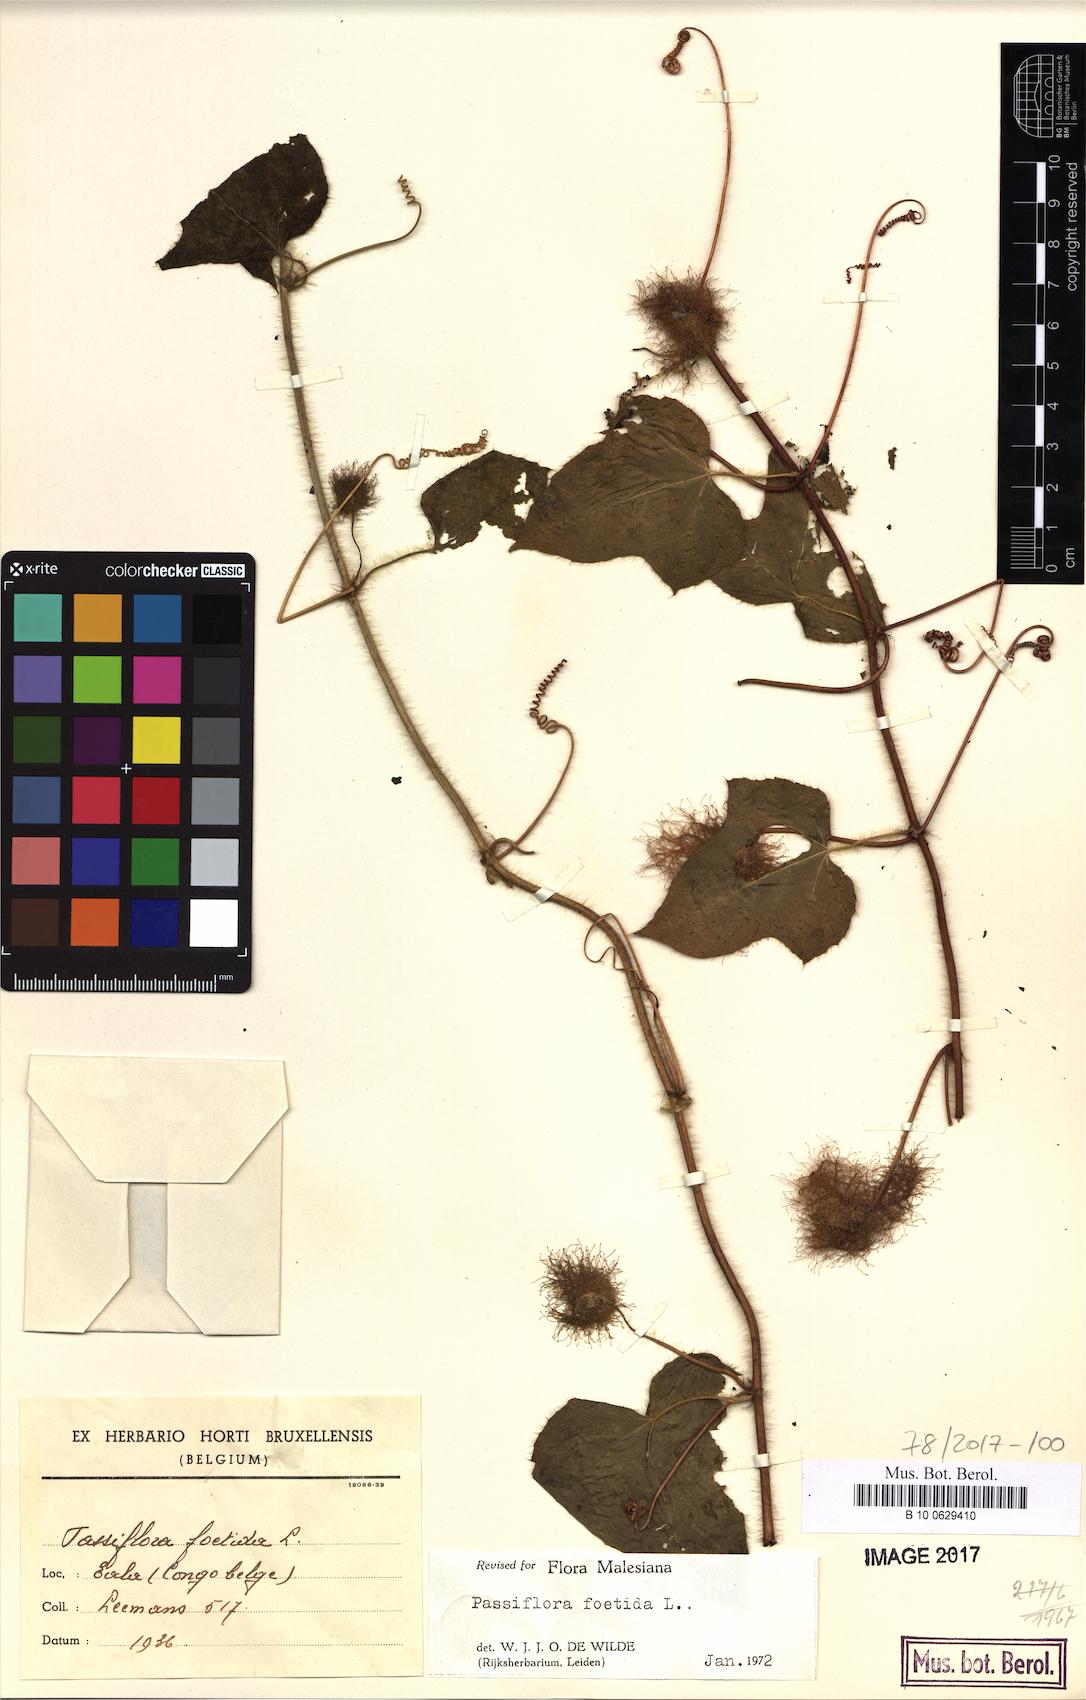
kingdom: Plantae
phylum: Tracheophyta
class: Magnoliopsida
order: Malpighiales
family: Passifloraceae
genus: Passiflora
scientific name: Passiflora foetida
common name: Fetid passionflower
